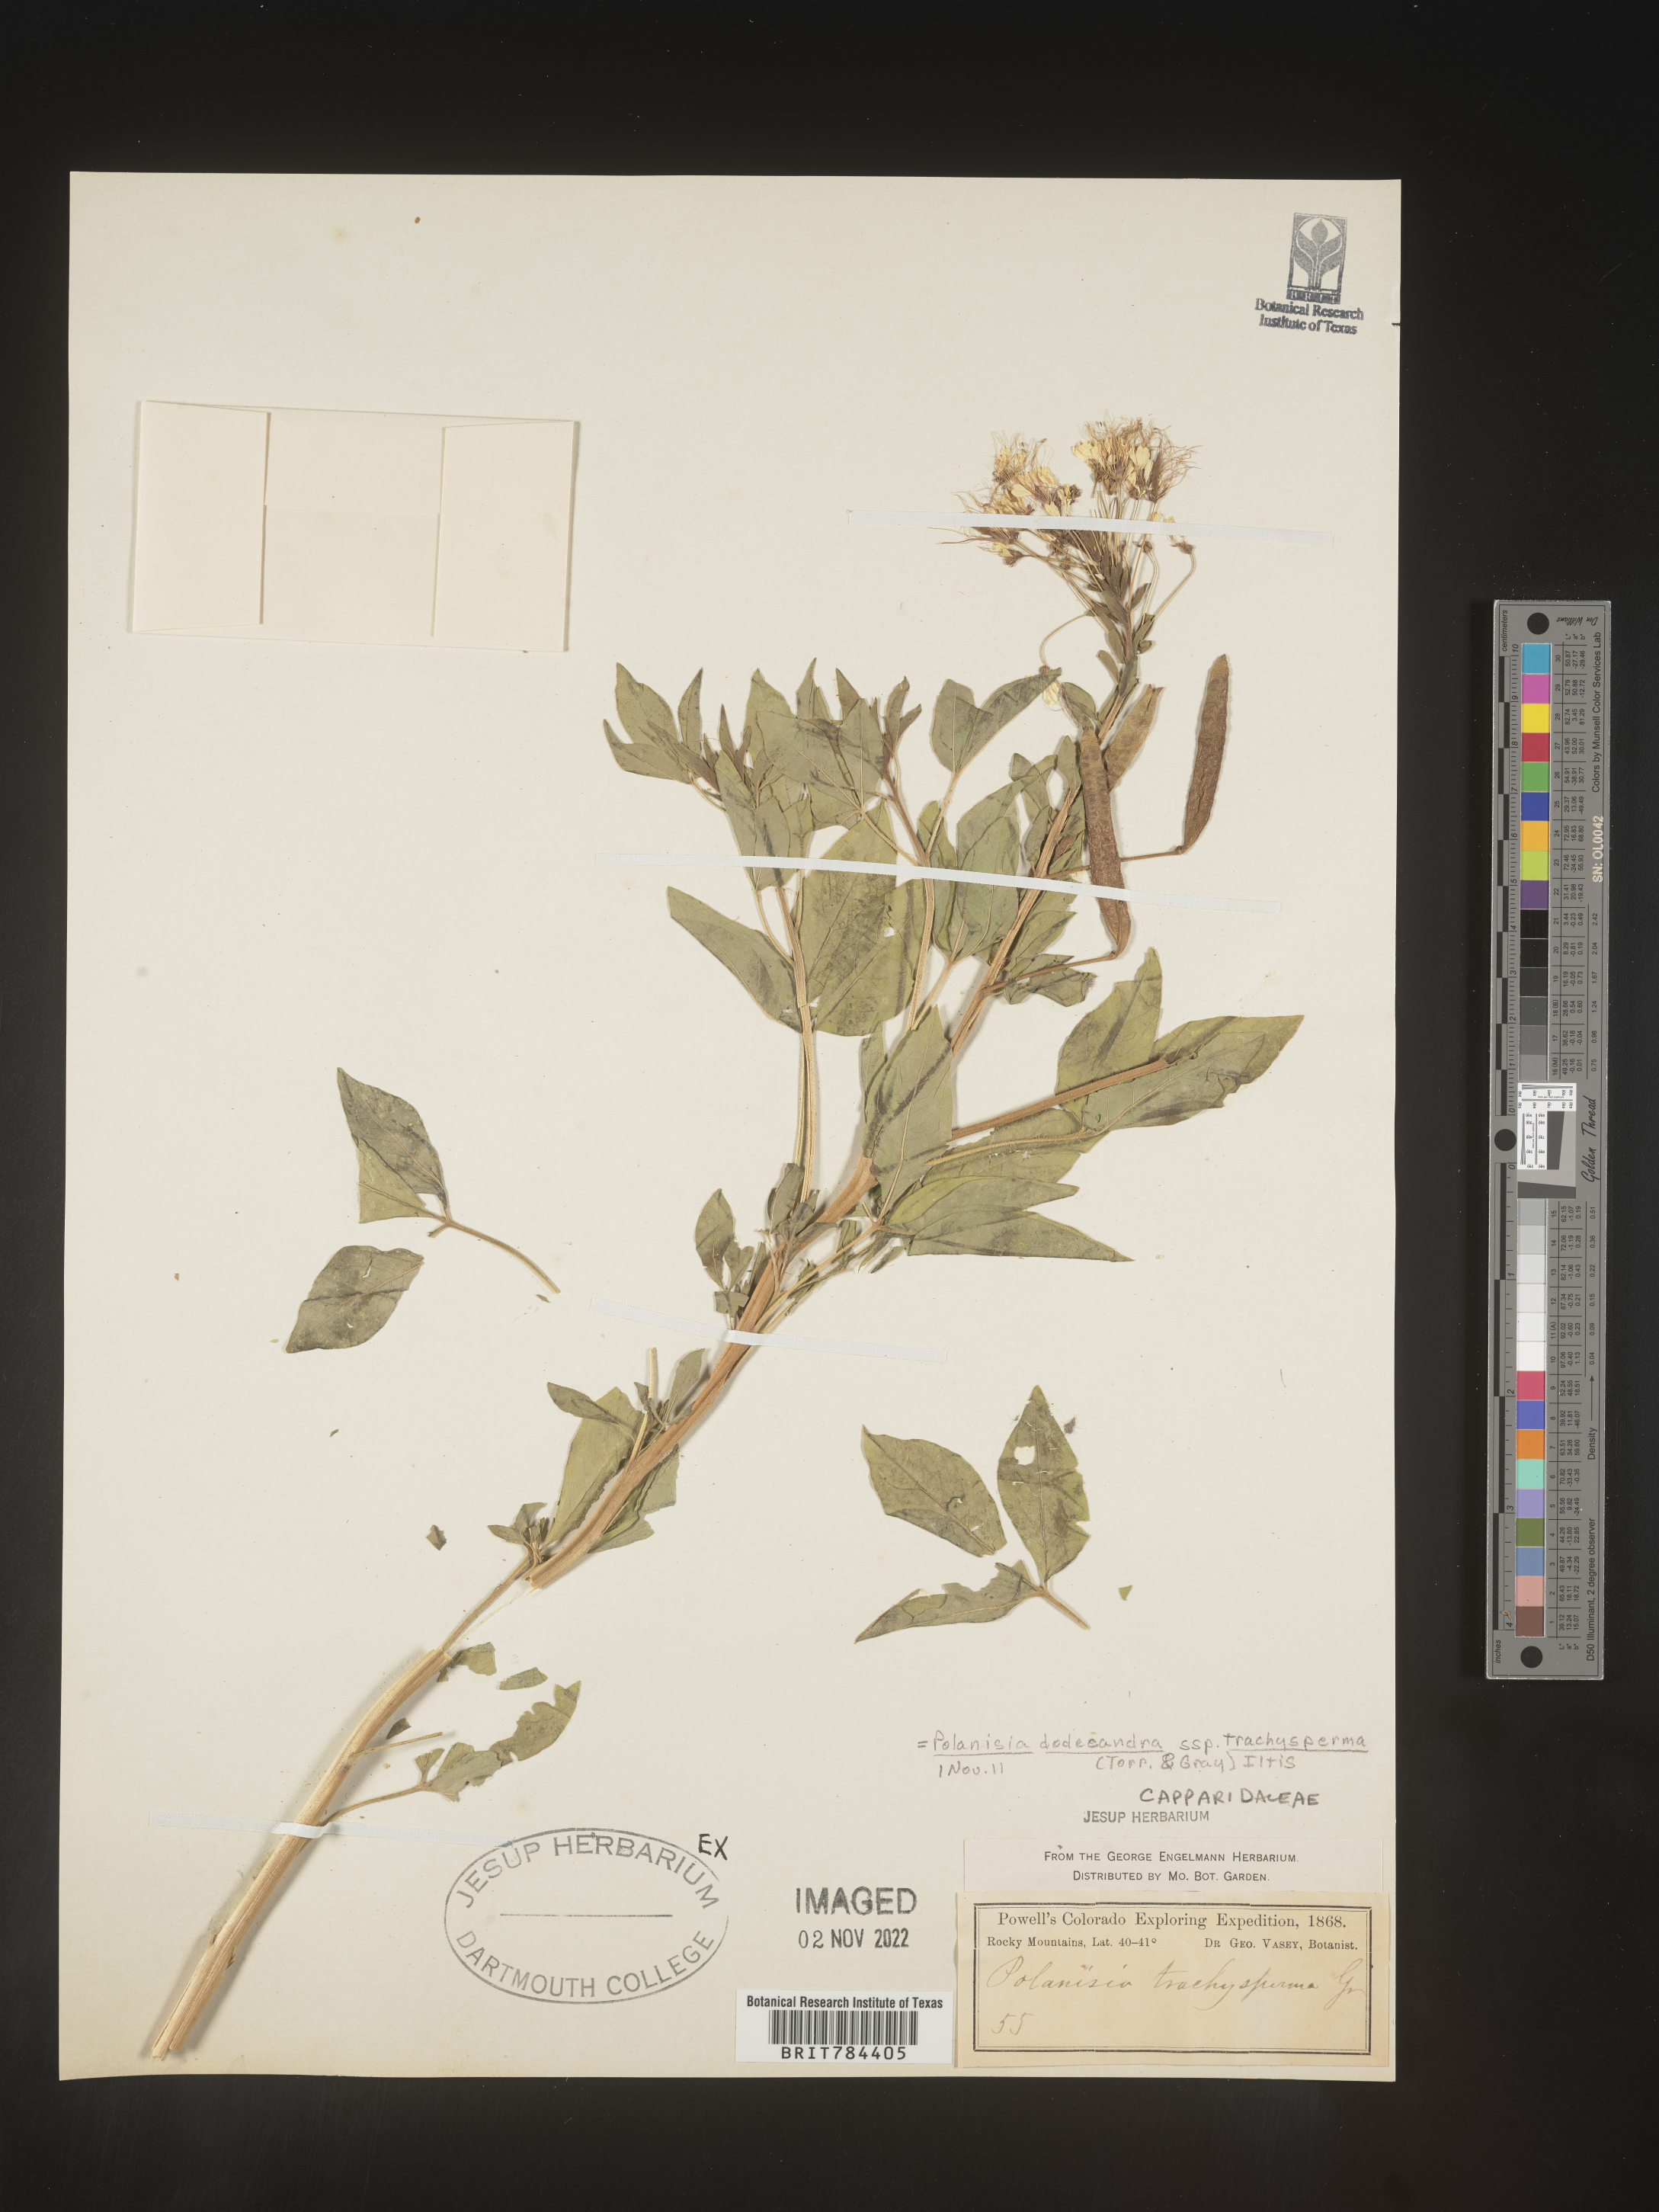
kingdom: Plantae
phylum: Tracheophyta
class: Magnoliopsida
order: Brassicales
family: Cleomaceae
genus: Polanisia
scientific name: Polanisia dodecandra
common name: Clammyweed
